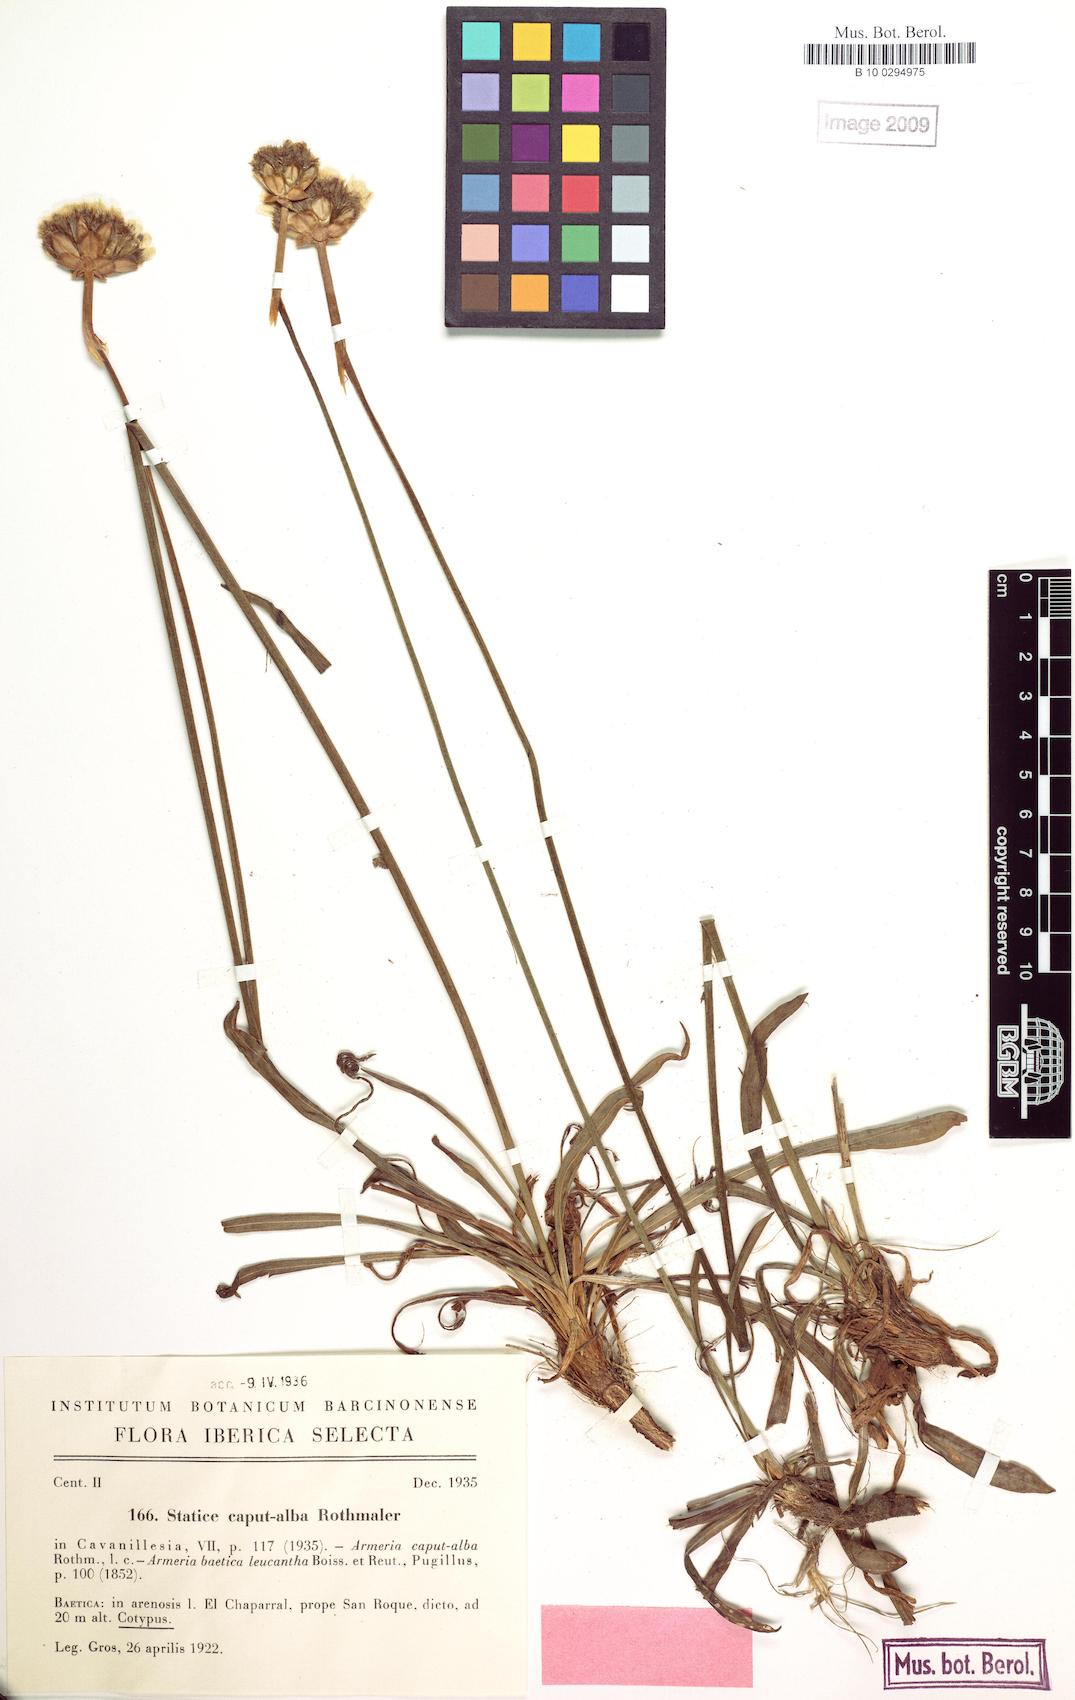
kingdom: Plantae
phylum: Tracheophyta
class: Magnoliopsida
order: Caryophyllales
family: Plumbaginaceae
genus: Armeria
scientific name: Armeria hirta
